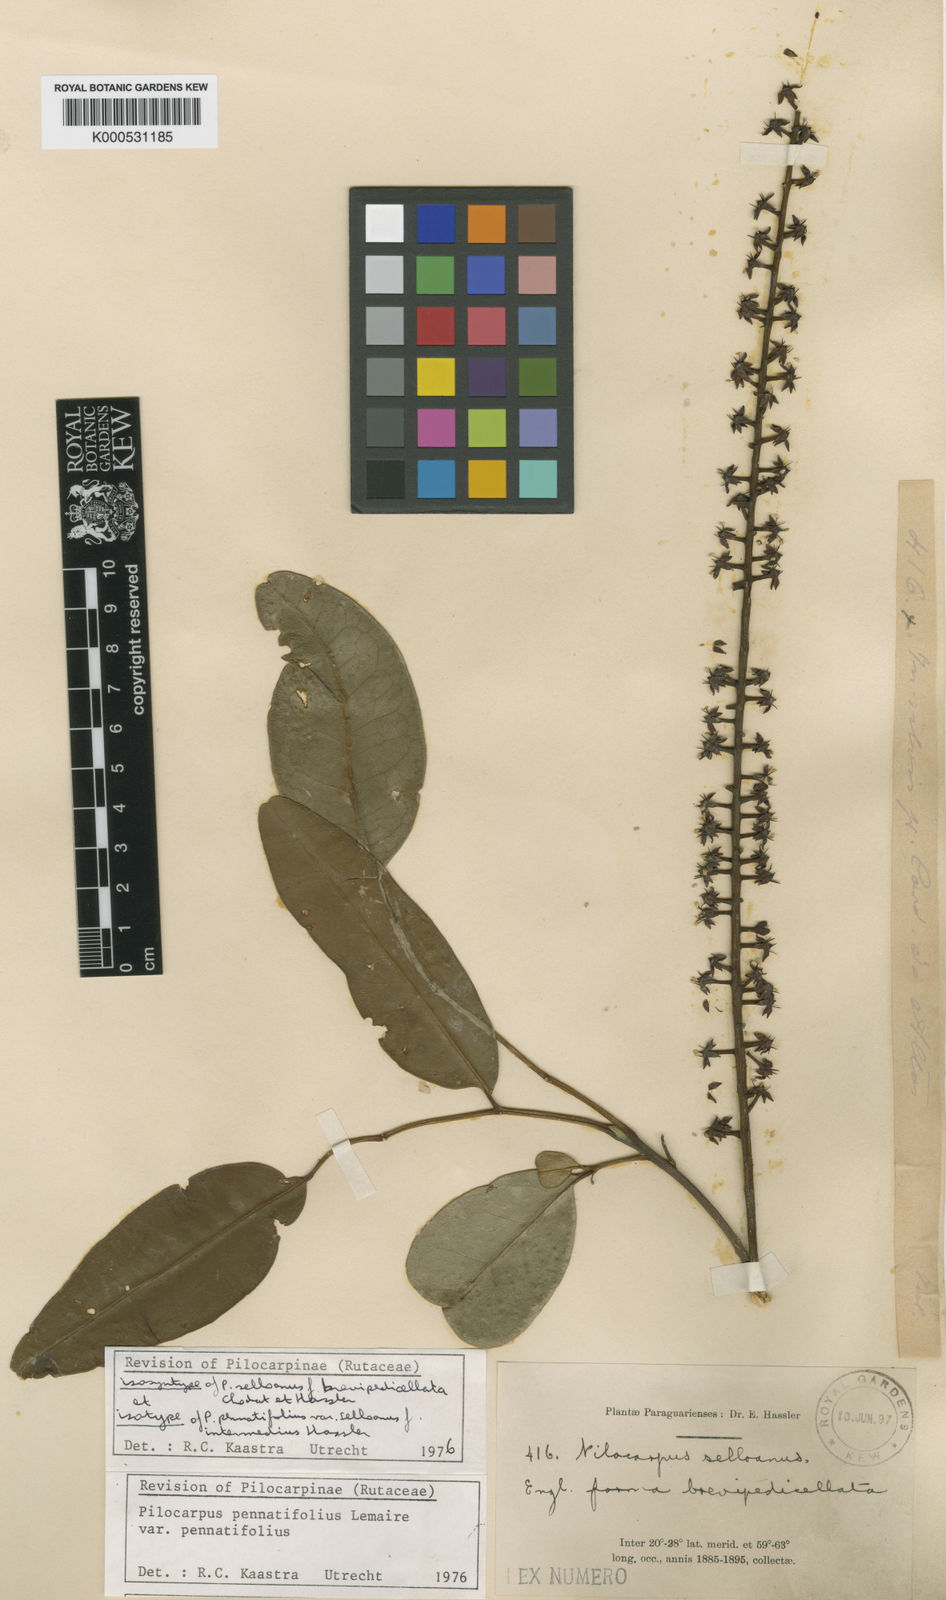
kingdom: Plantae
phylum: Tracheophyta
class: Magnoliopsida
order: Sapindales
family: Rutaceae
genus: Pilocarpus
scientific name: Pilocarpus pennatifolius
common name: Paraguay jaborandi
